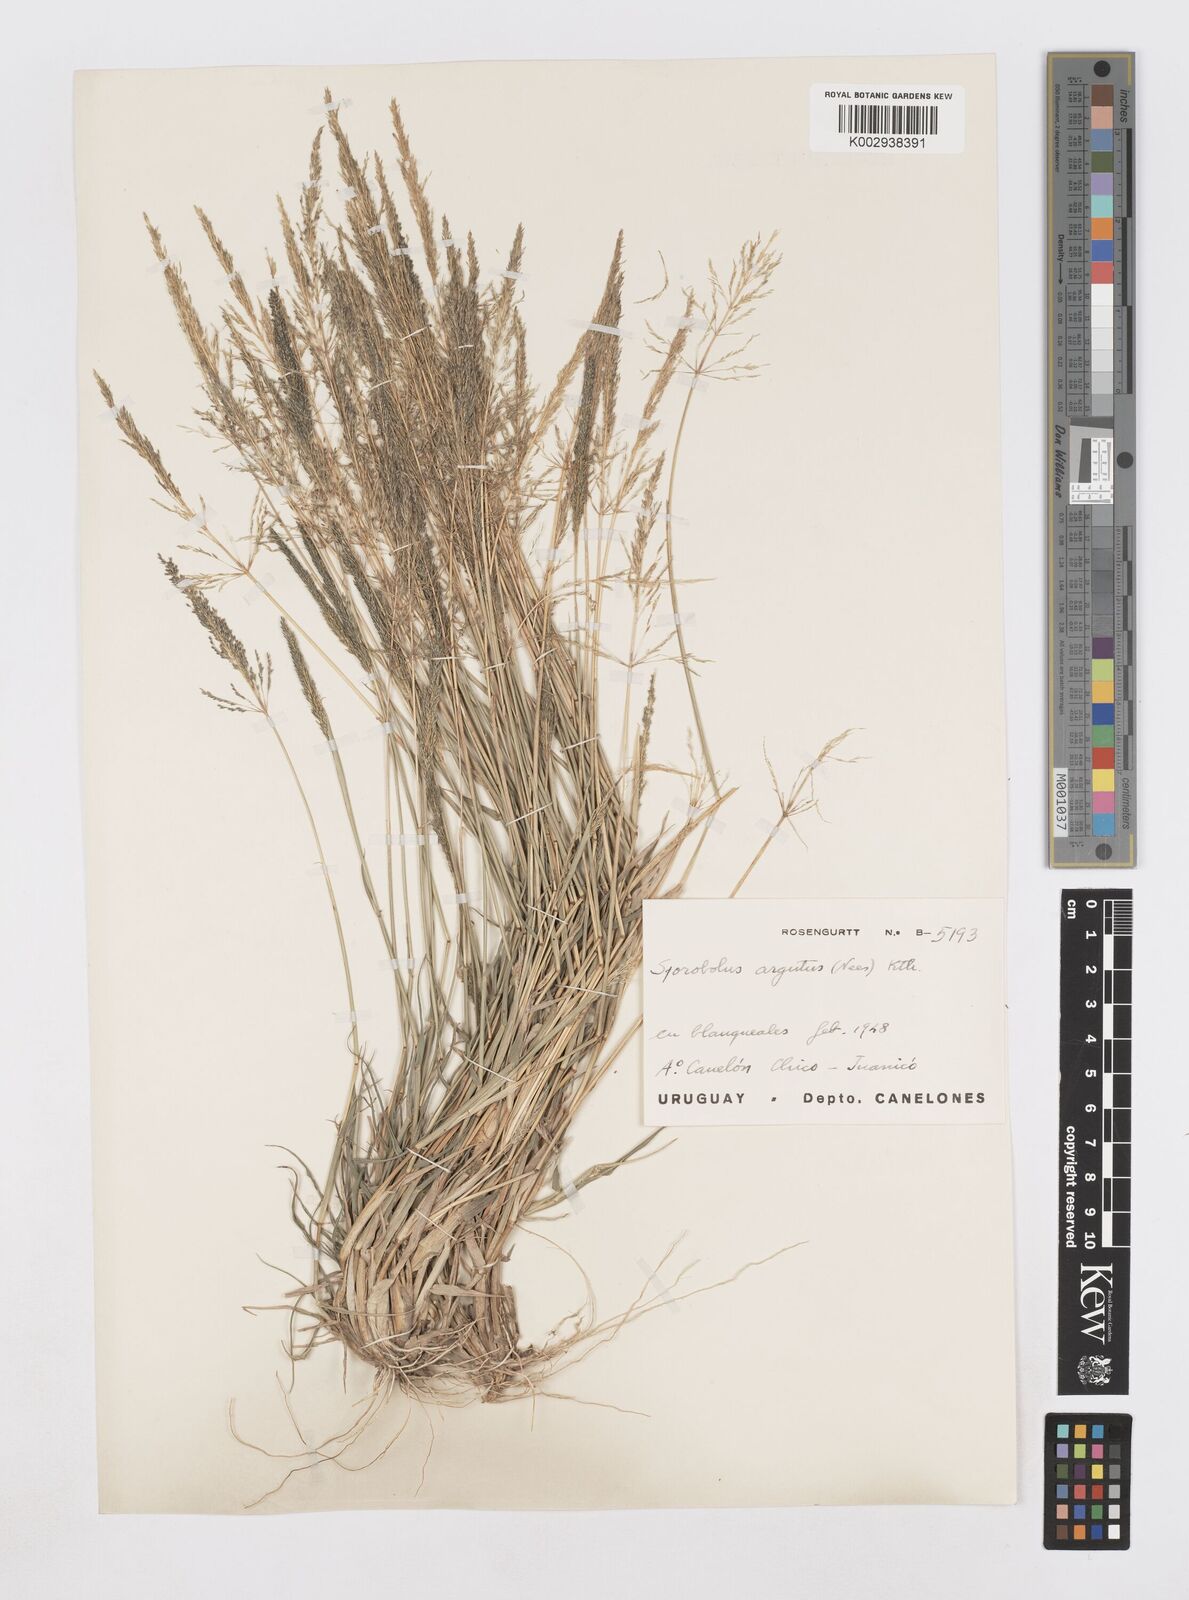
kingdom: Plantae
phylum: Tracheophyta
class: Liliopsida
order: Poales
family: Poaceae
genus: Sporobolus
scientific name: Sporobolus pyramidatus
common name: Whorled dropseed
